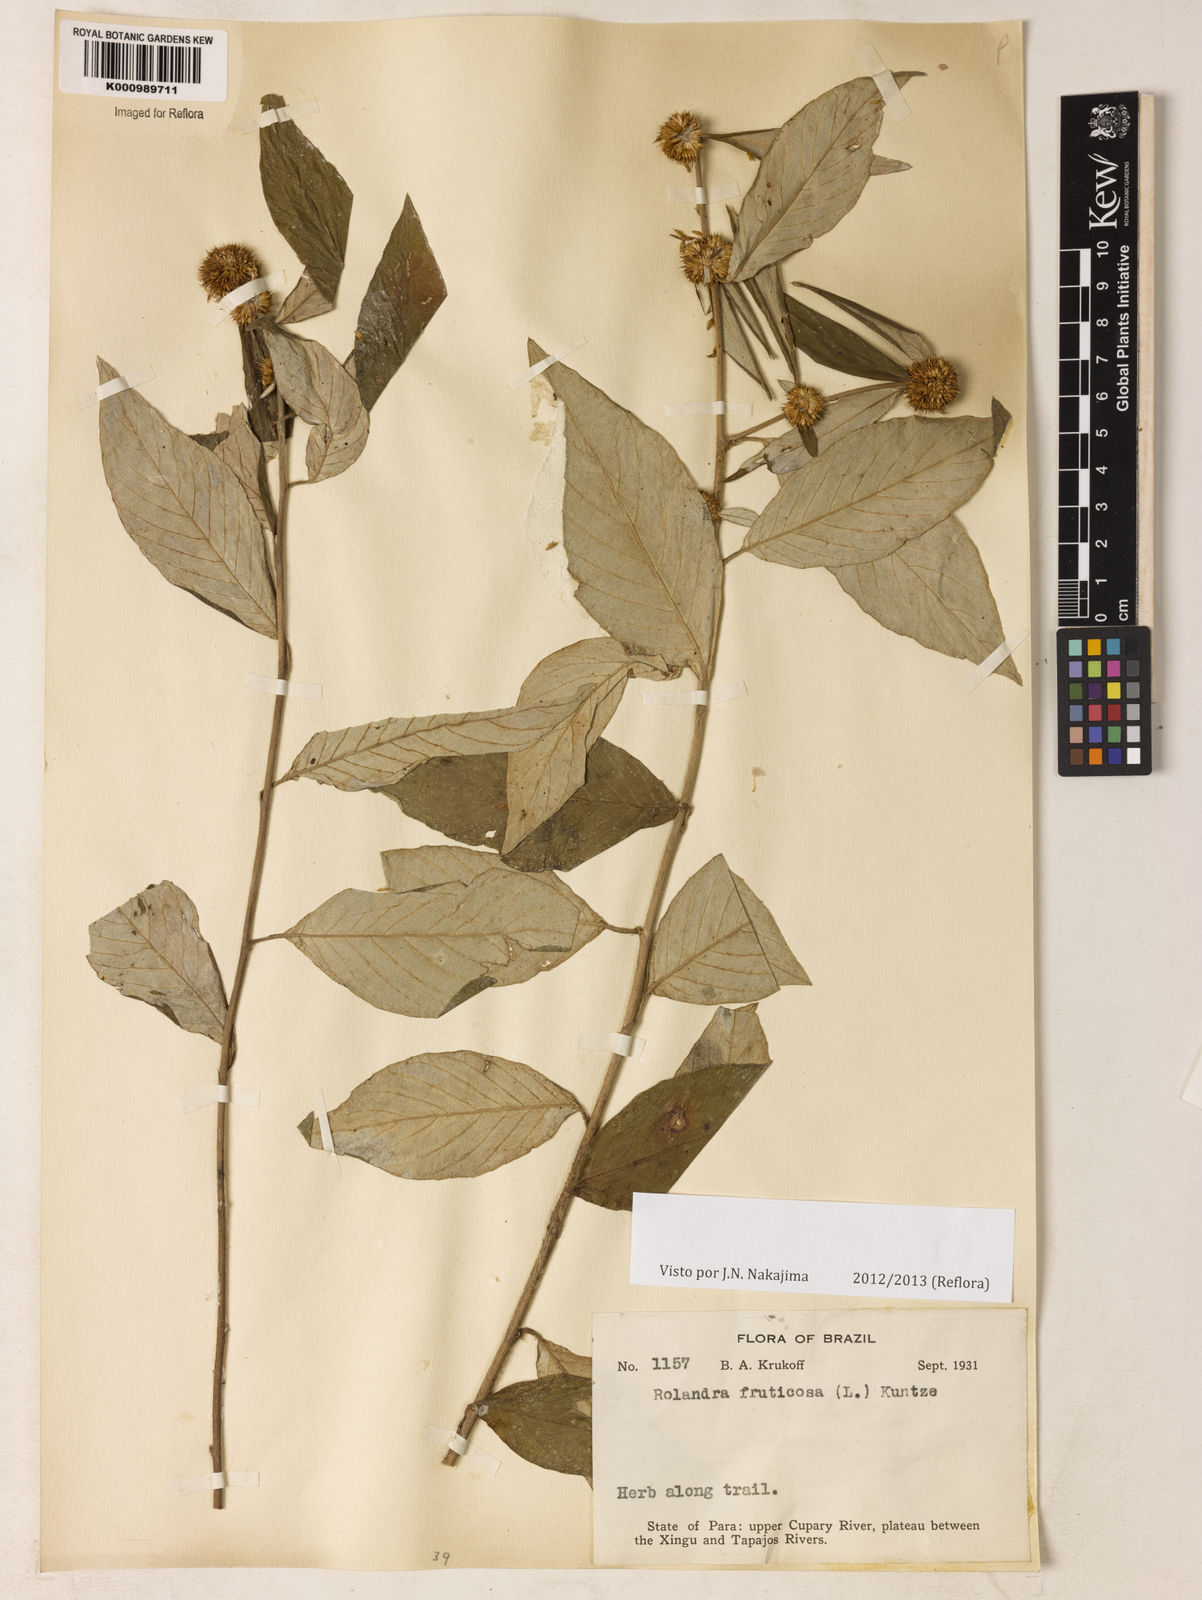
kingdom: Plantae
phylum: Tracheophyta
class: Magnoliopsida
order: Asterales
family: Asteraceae
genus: Rolandra
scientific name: Rolandra fruticosa
